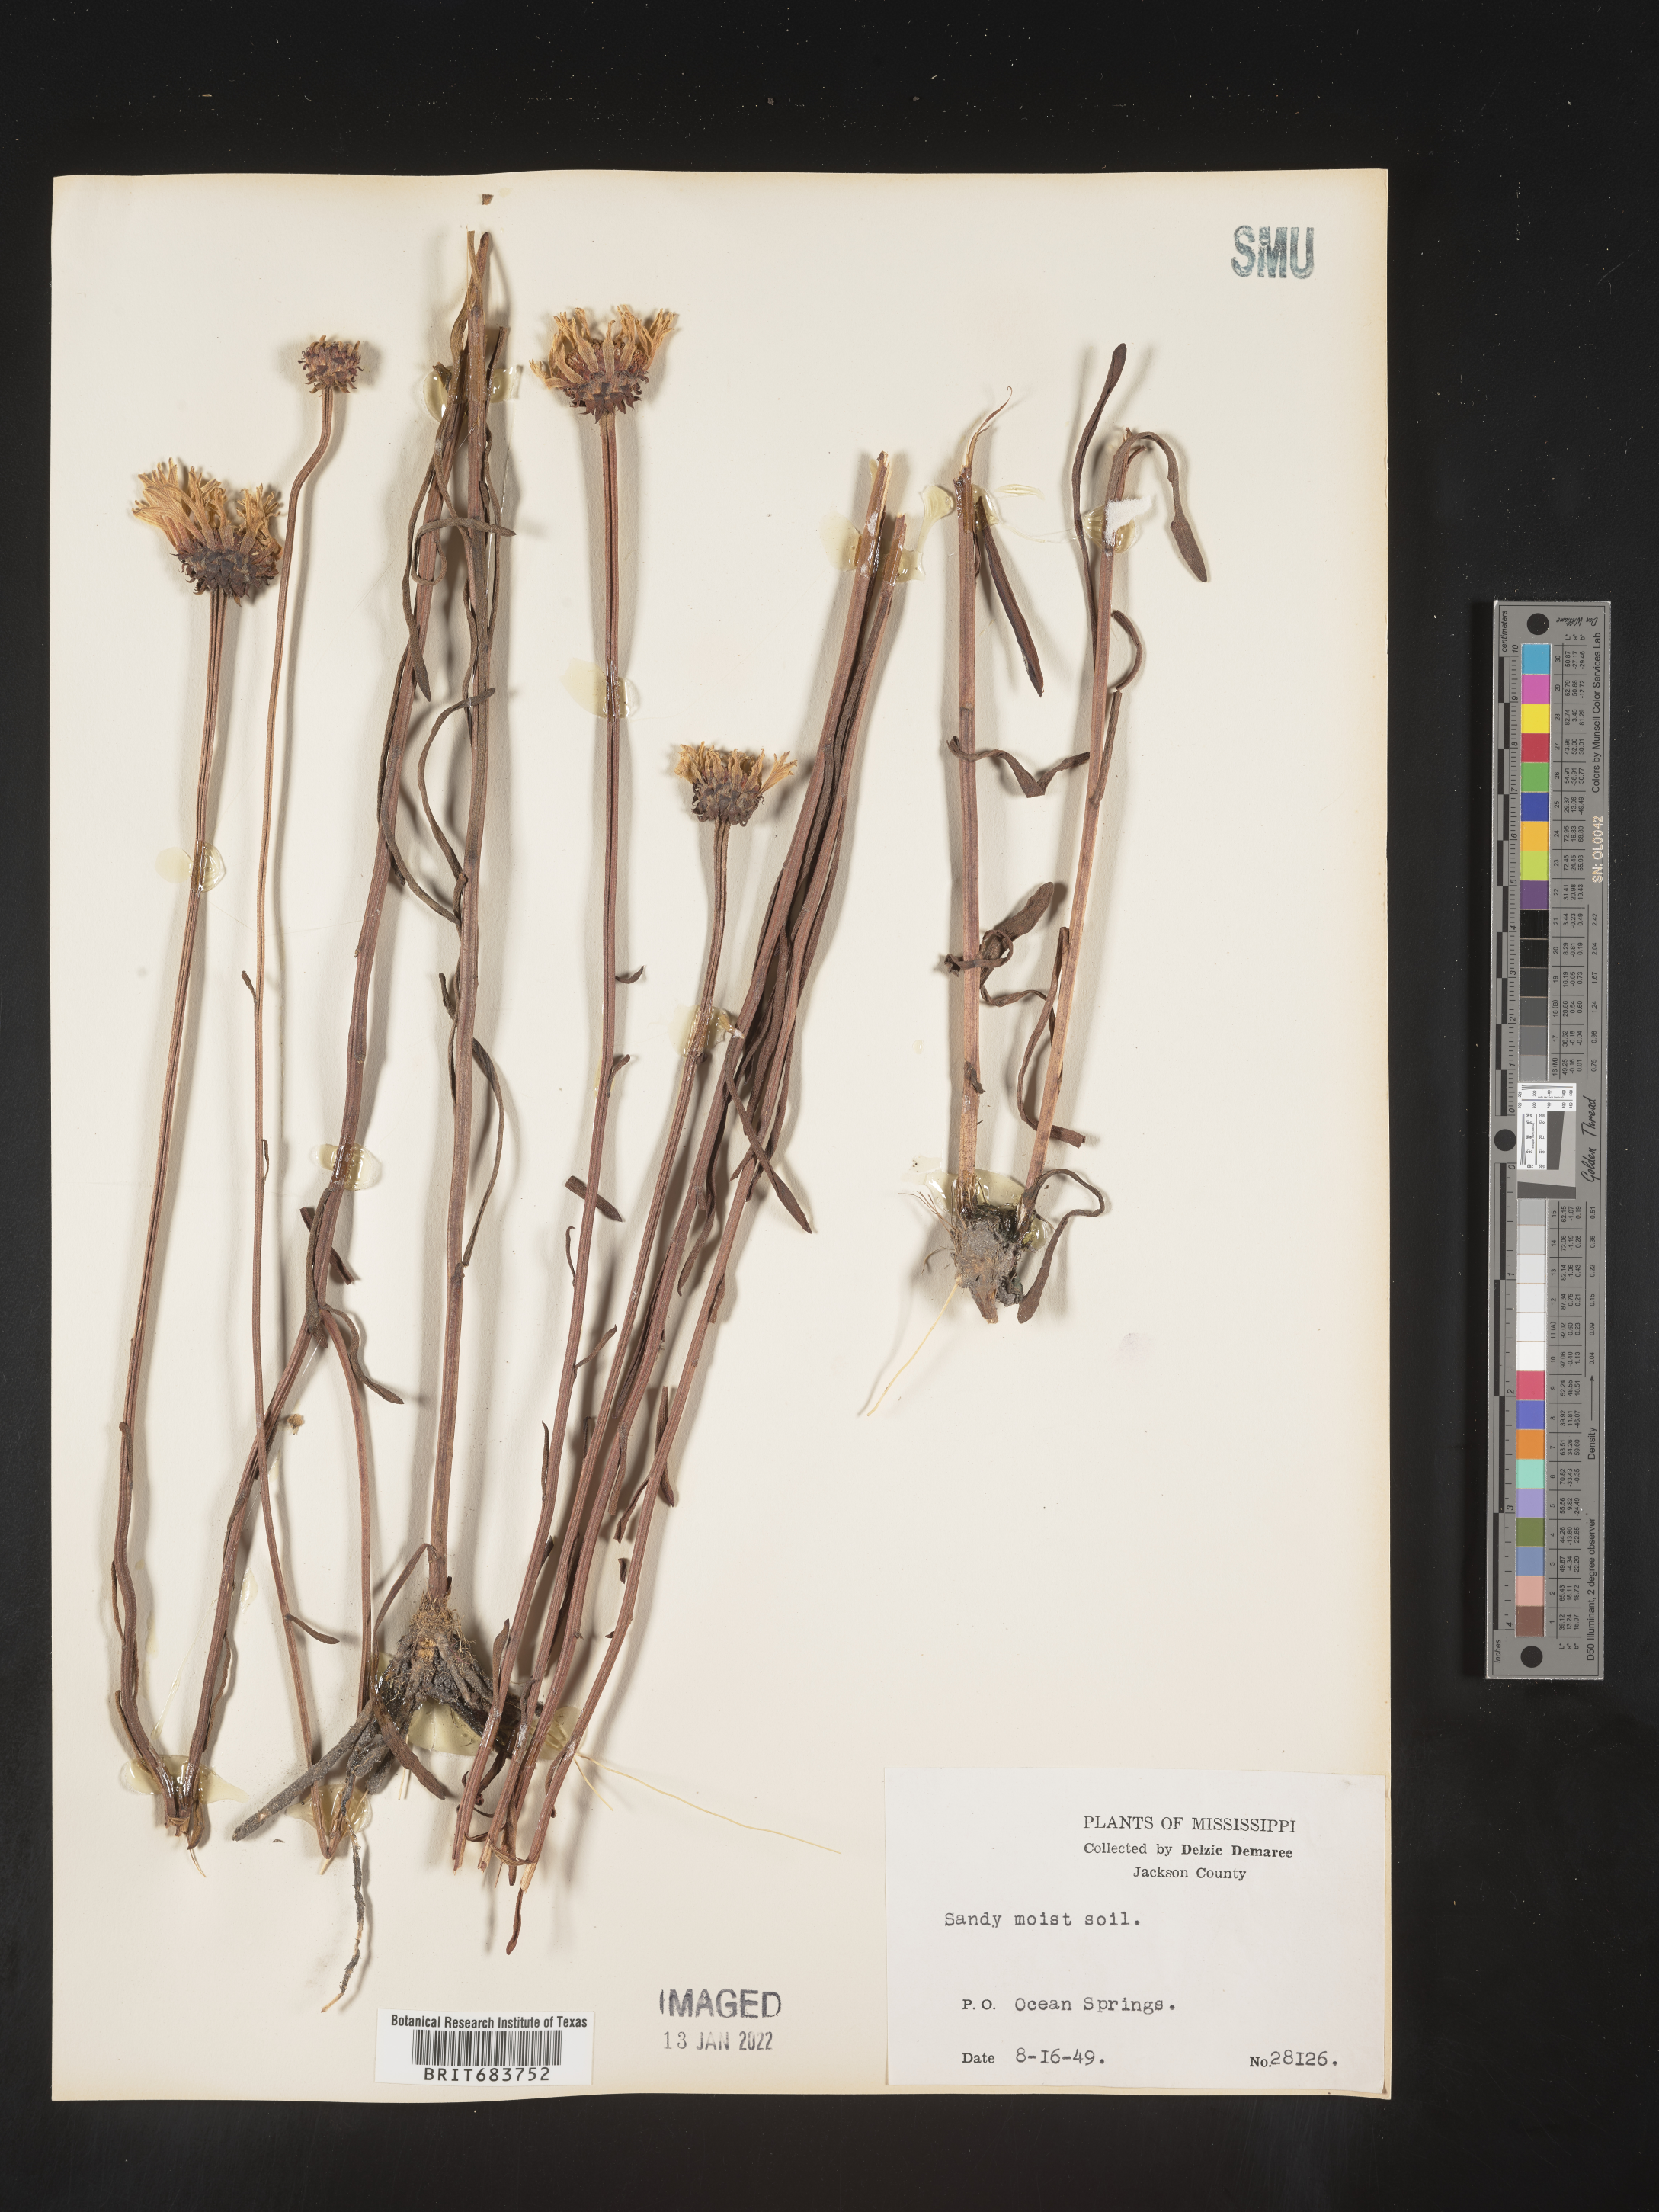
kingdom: Plantae
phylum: Tracheophyta
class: Magnoliopsida
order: Asterales
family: Asteraceae
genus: Balduina
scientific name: Balduina uniflora
